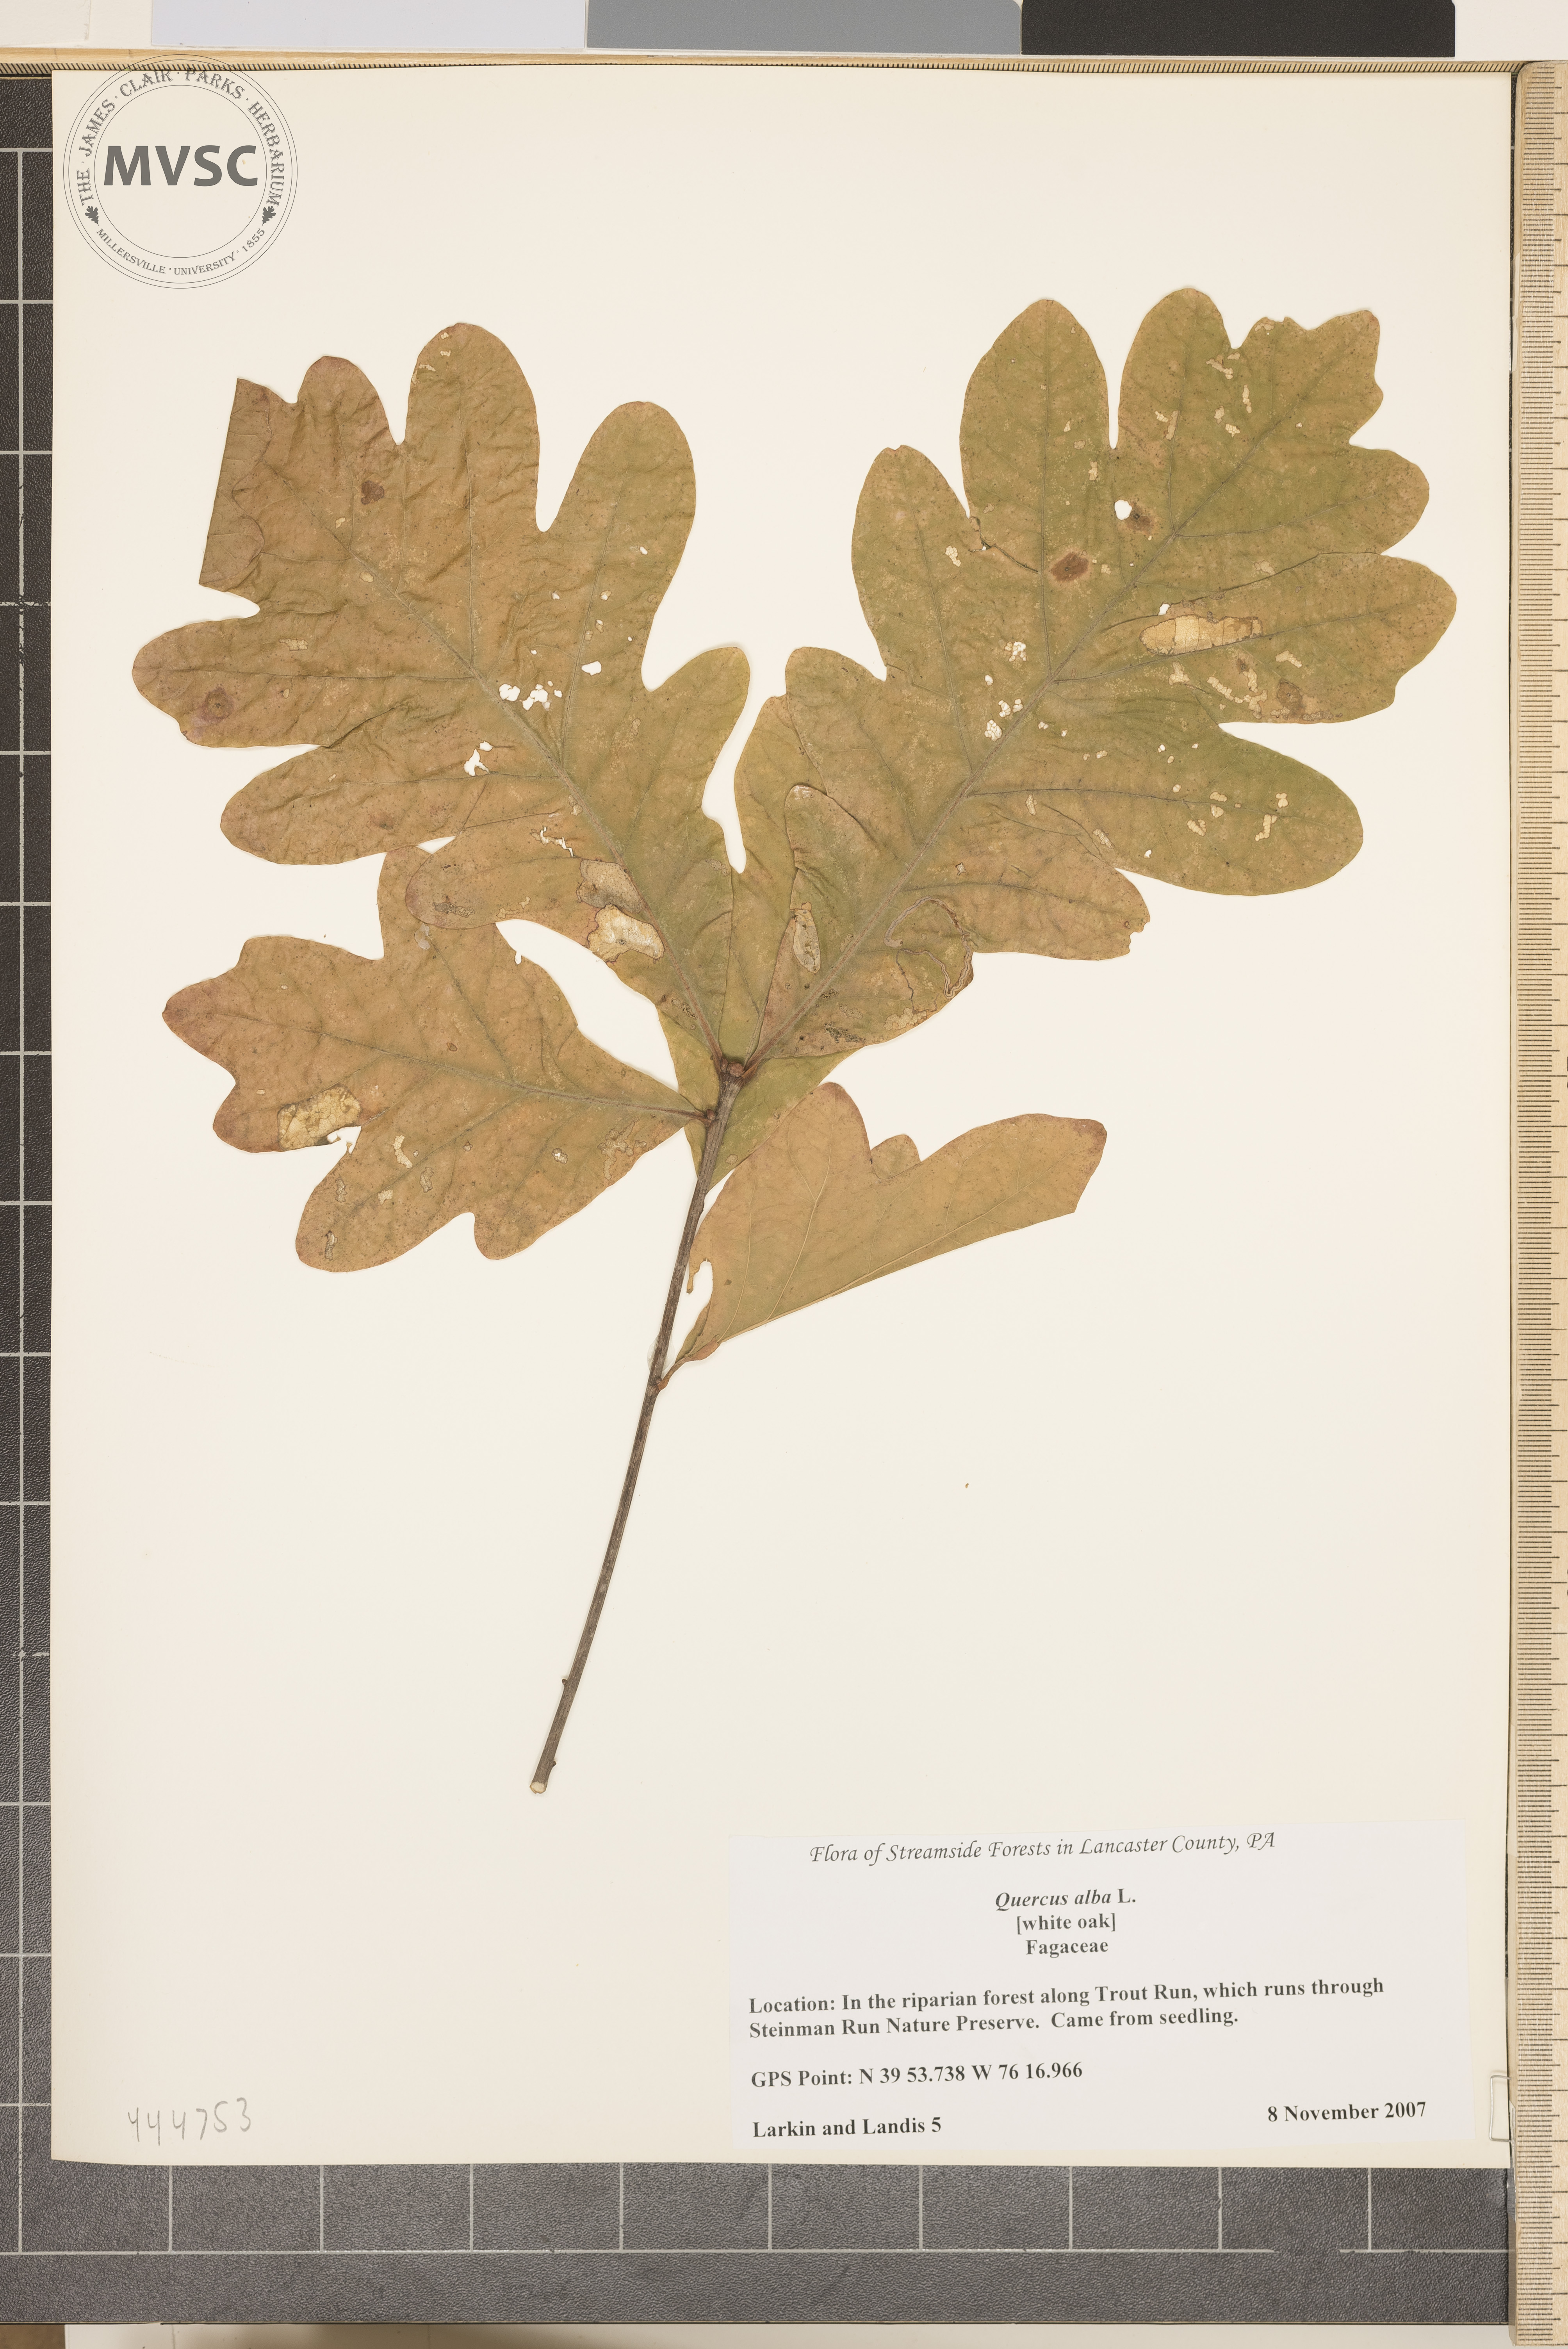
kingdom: Plantae
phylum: Tracheophyta
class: Magnoliopsida
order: Fagales
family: Fagaceae
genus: Quercus
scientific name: Quercus alba
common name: White oak
